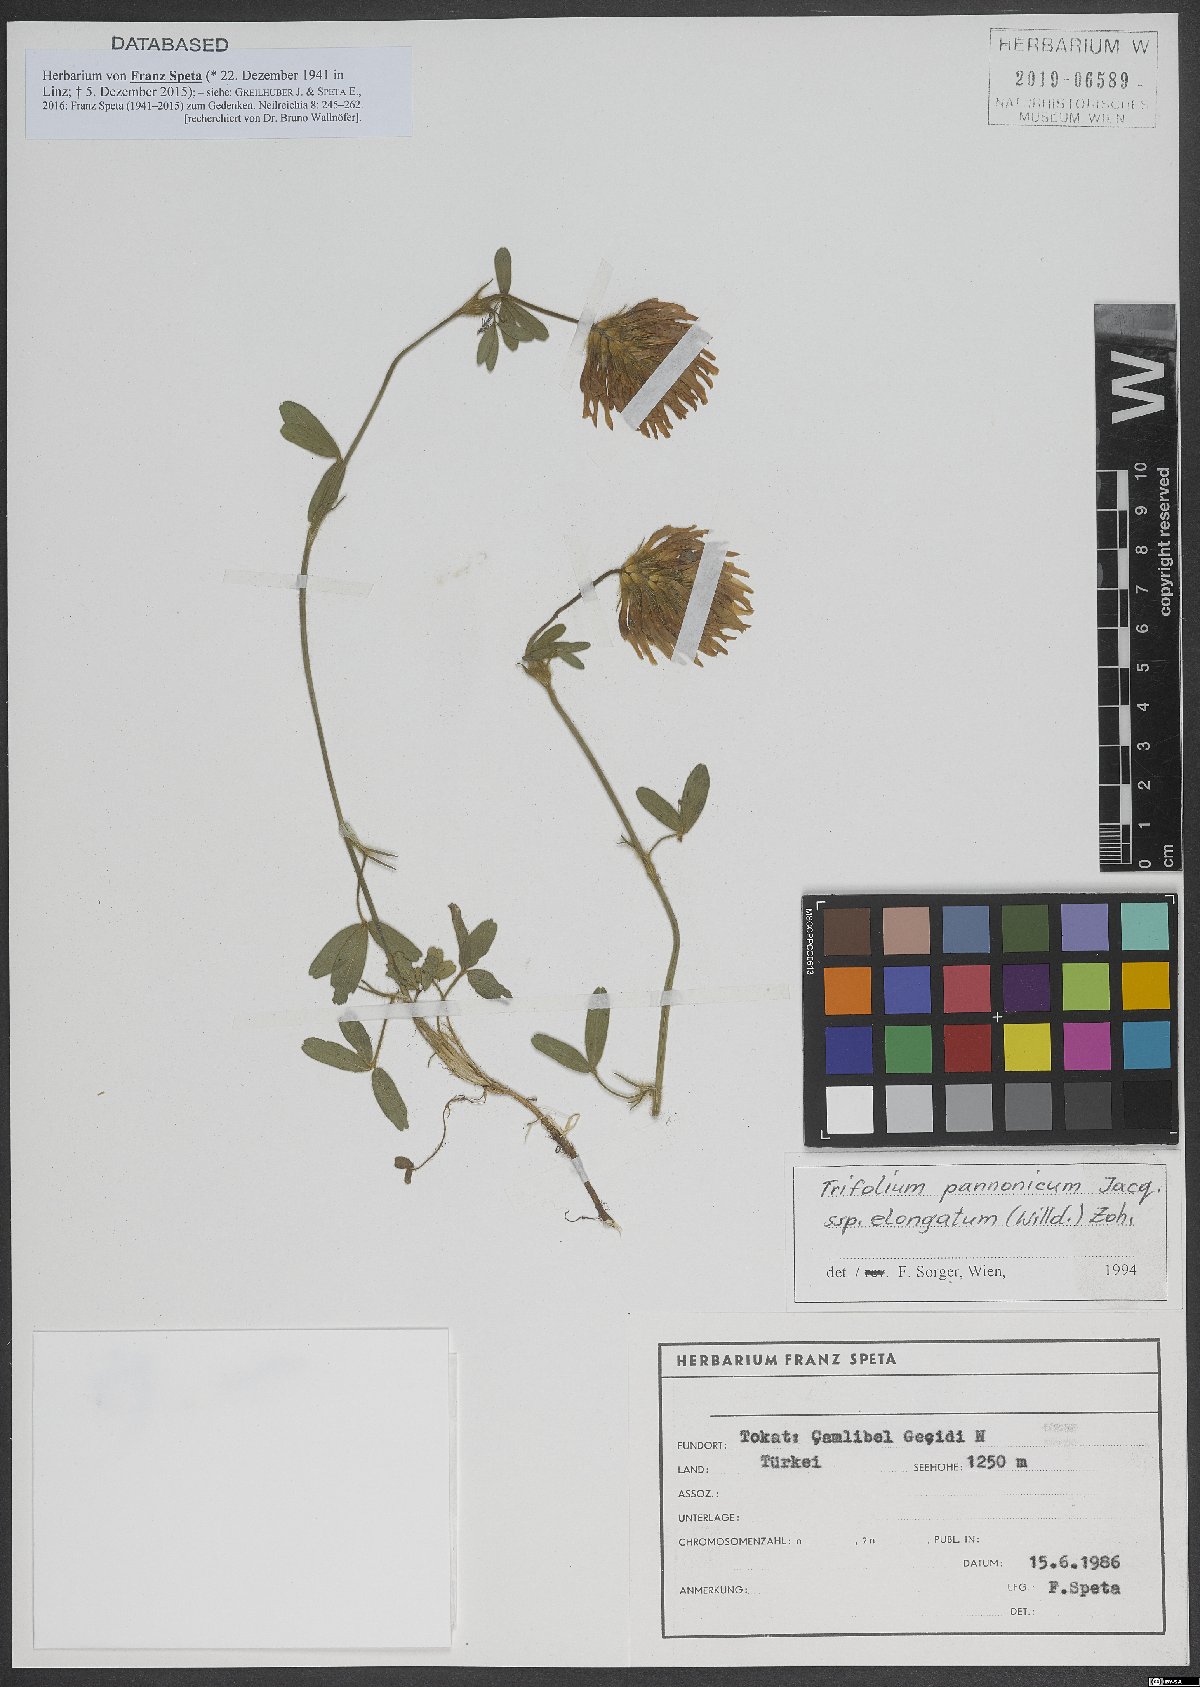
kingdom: Plantae
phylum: Tracheophyta
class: Magnoliopsida
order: Fabales
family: Fabaceae
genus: Trifolium
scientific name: Trifolium pannonicum
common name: Hungarian clover
